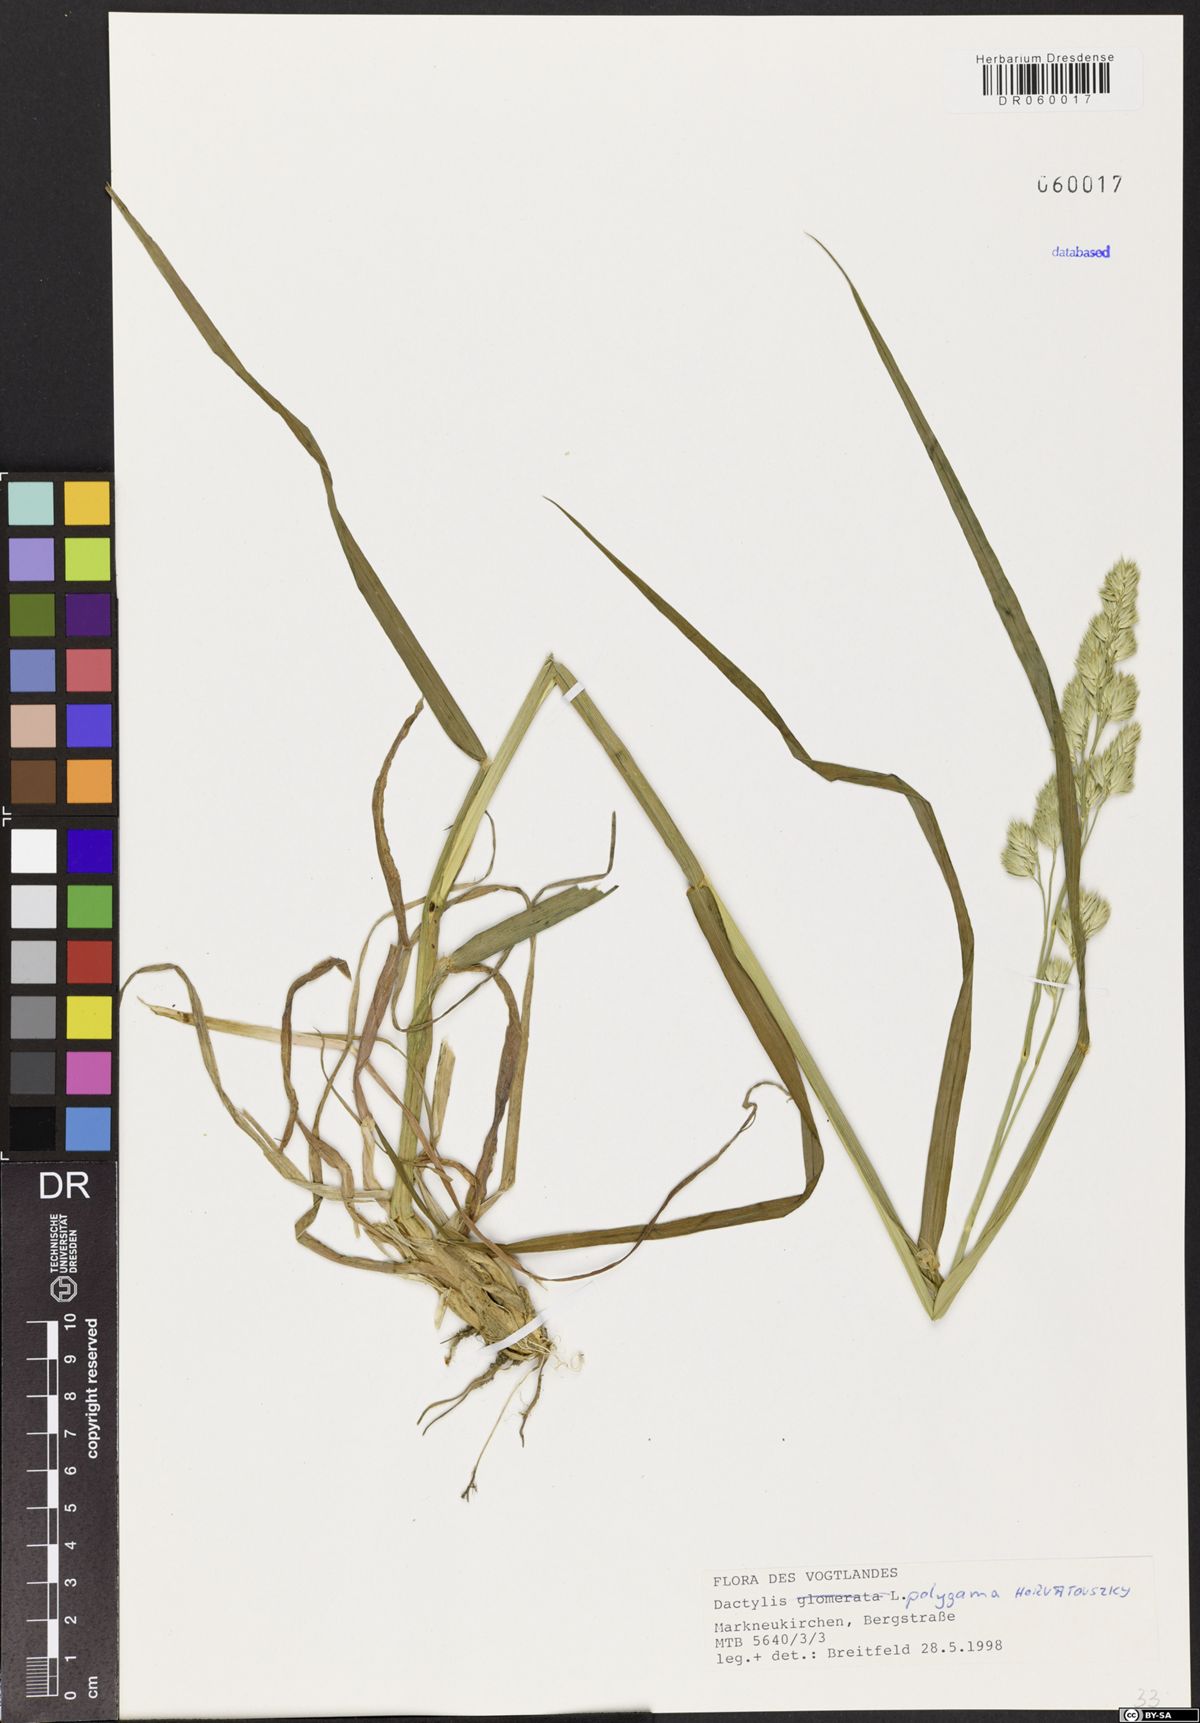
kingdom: Plantae
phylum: Tracheophyta
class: Liliopsida
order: Poales
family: Poaceae
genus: Dactylis
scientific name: Dactylis glomerata
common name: Orchardgrass
